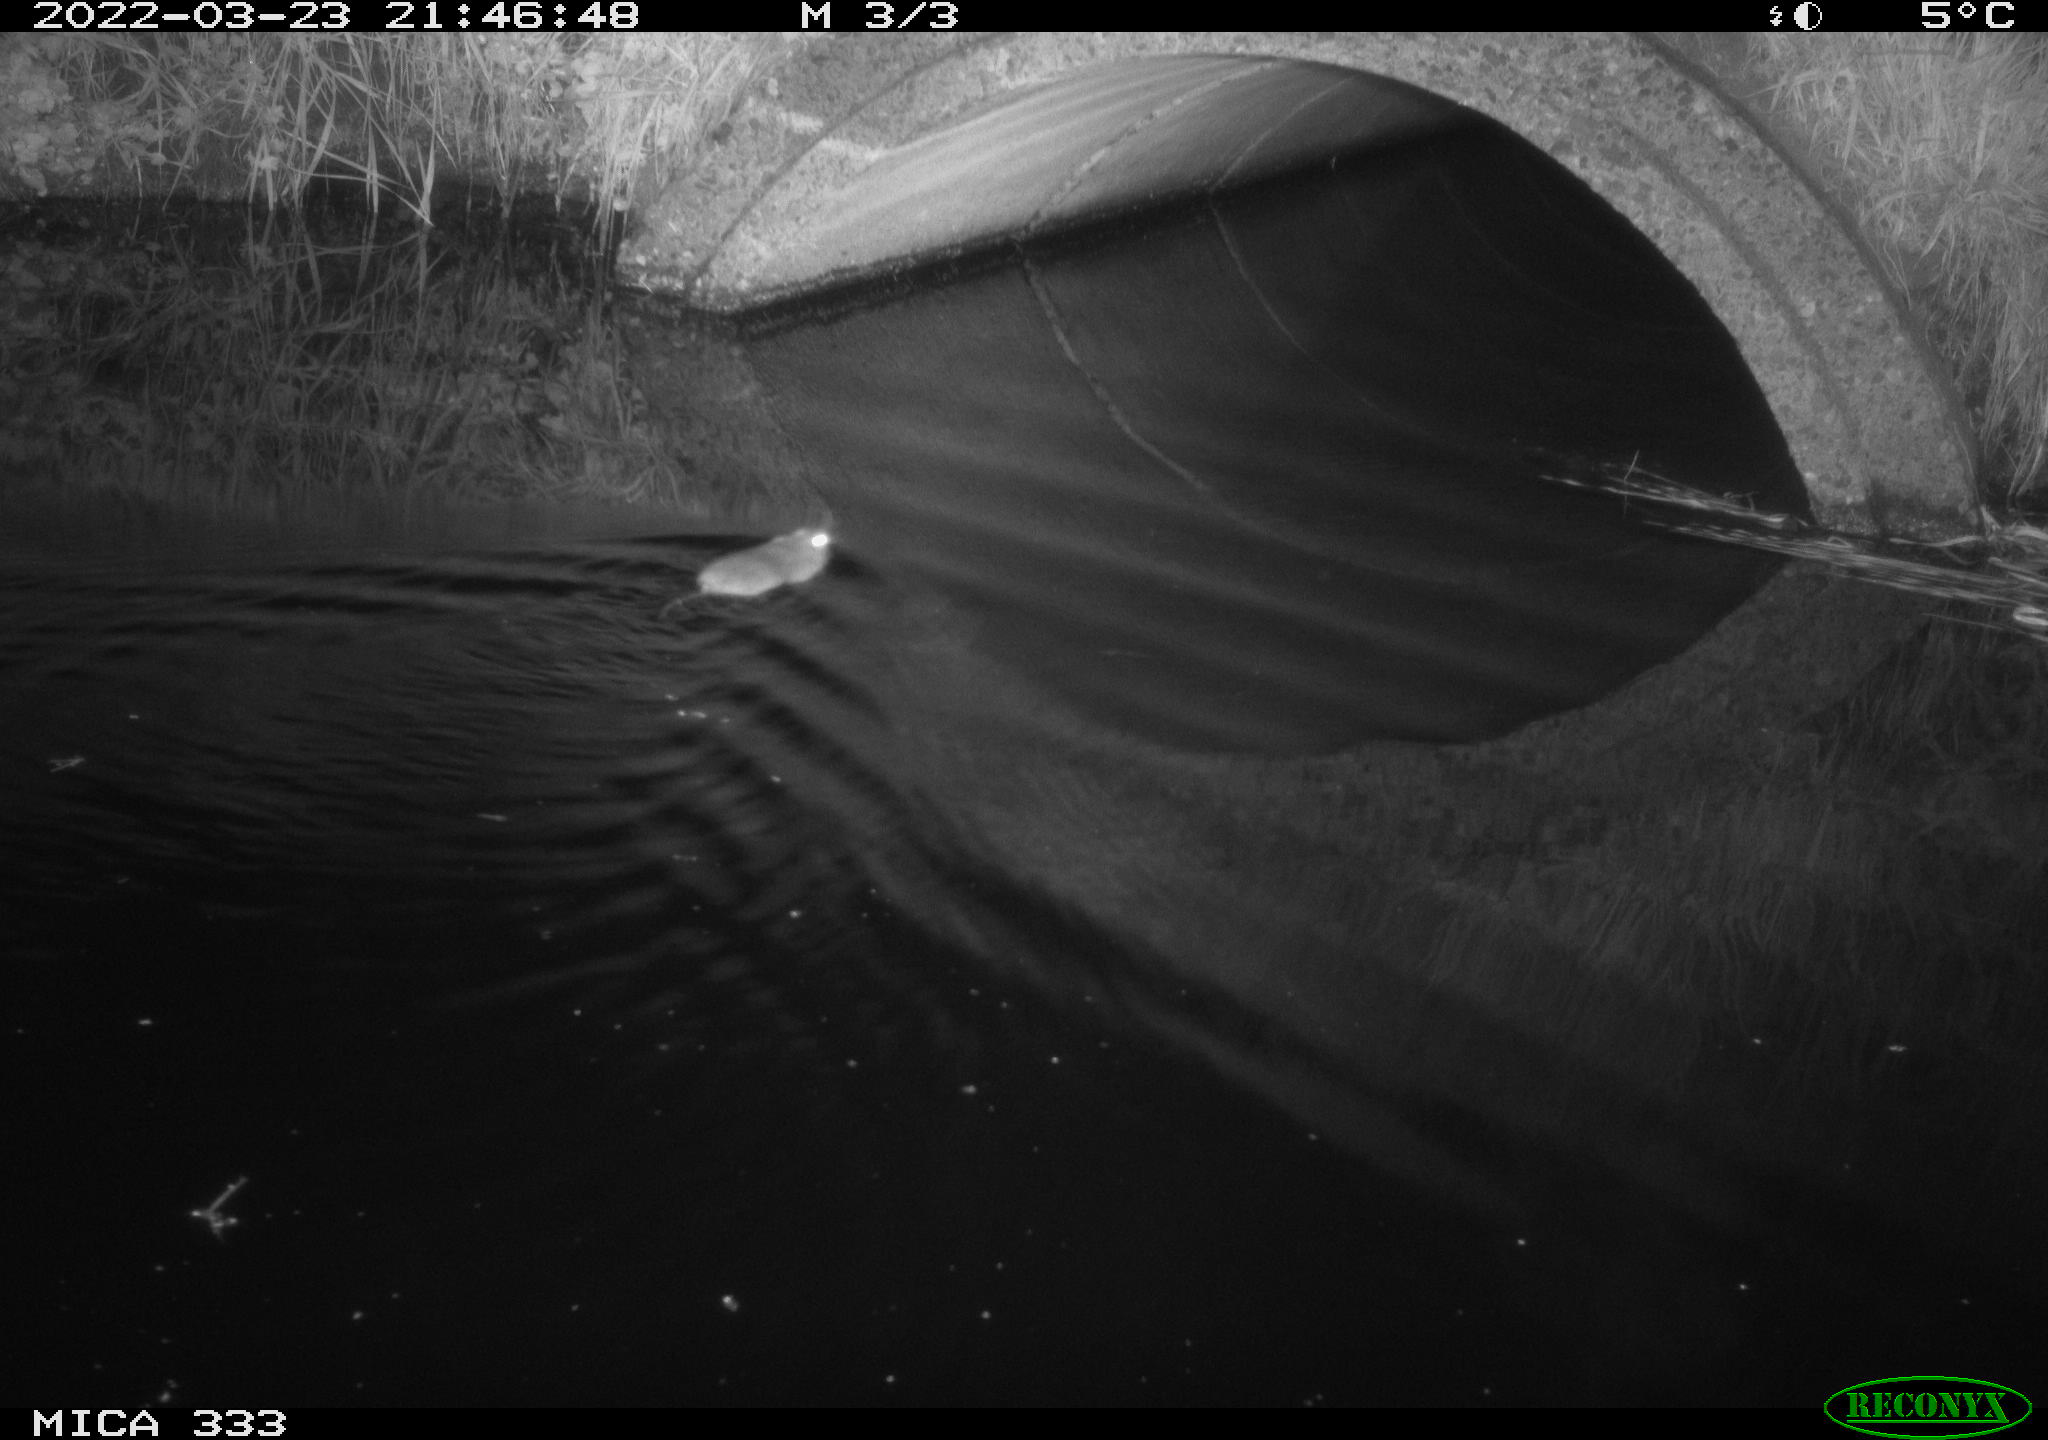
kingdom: Animalia
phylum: Chordata
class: Mammalia
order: Rodentia
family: Muridae
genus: Rattus
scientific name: Rattus norvegicus
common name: Brown rat
